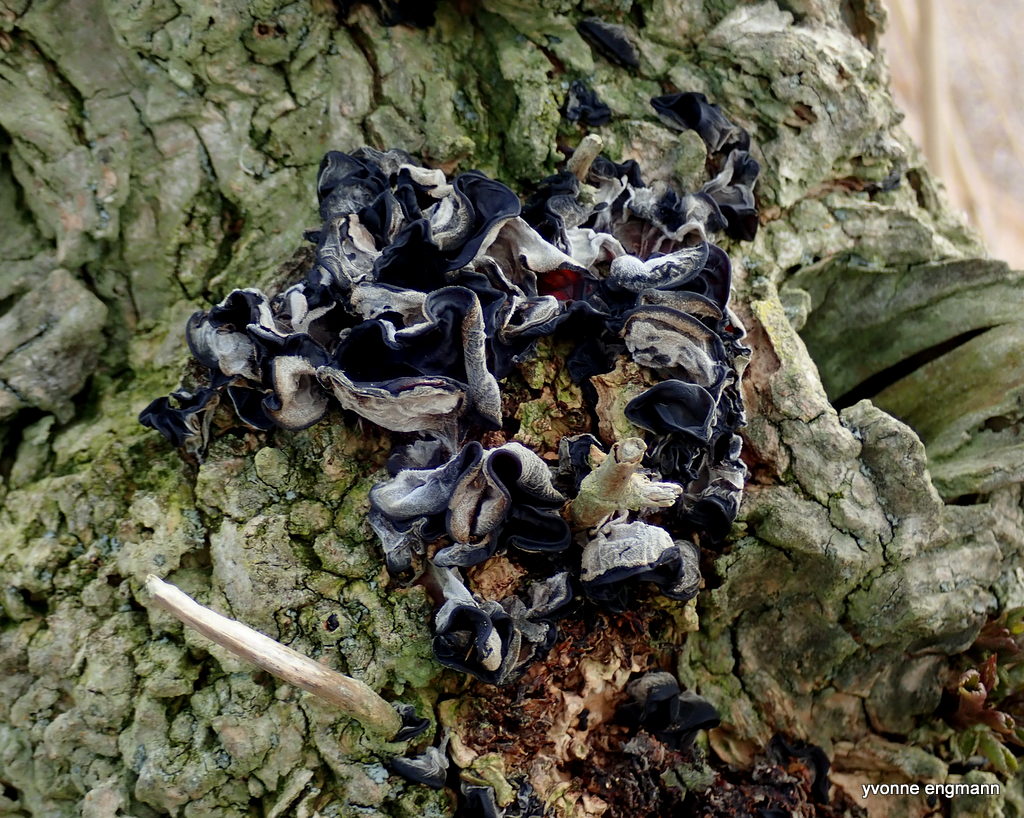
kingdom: Fungi
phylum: Basidiomycota
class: Agaricomycetes
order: Auriculariales
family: Auriculariaceae
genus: Auricularia
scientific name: Auricularia auricula-judae
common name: almindelig judasøre
